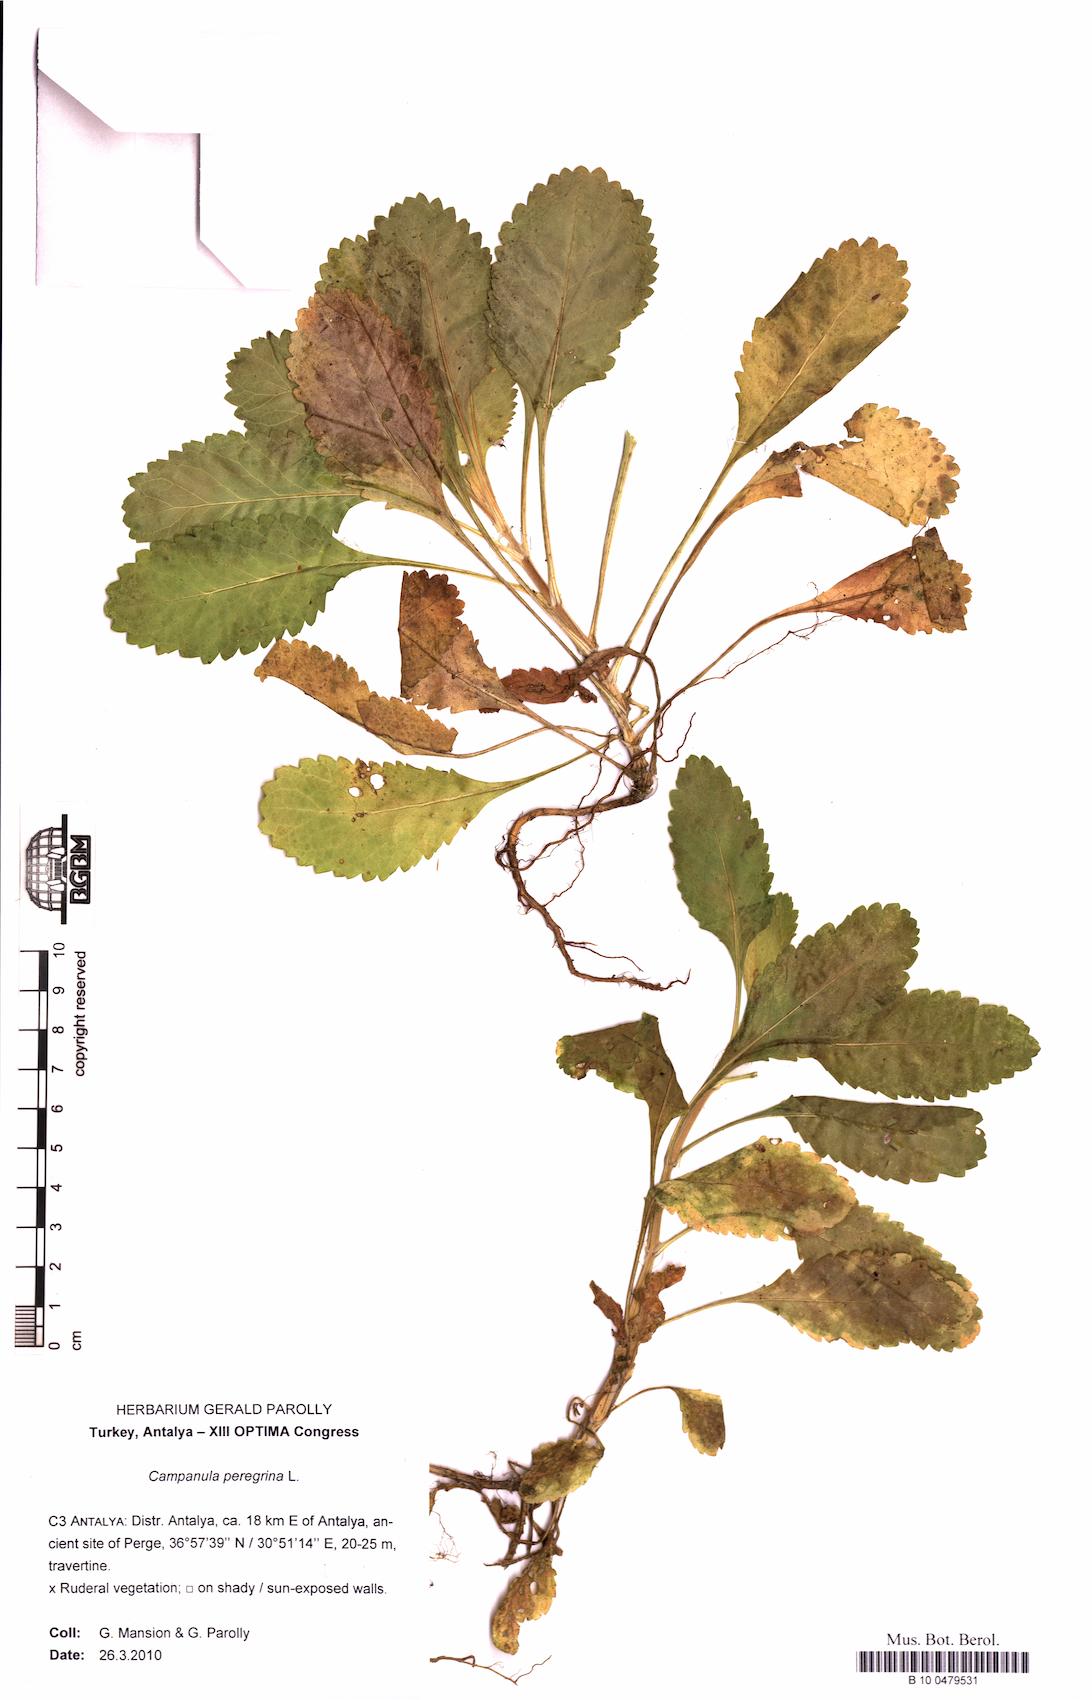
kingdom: Plantae
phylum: Tracheophyta
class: Magnoliopsida
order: Asterales
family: Campanulaceae
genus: Campanula
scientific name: Campanula peregrina
